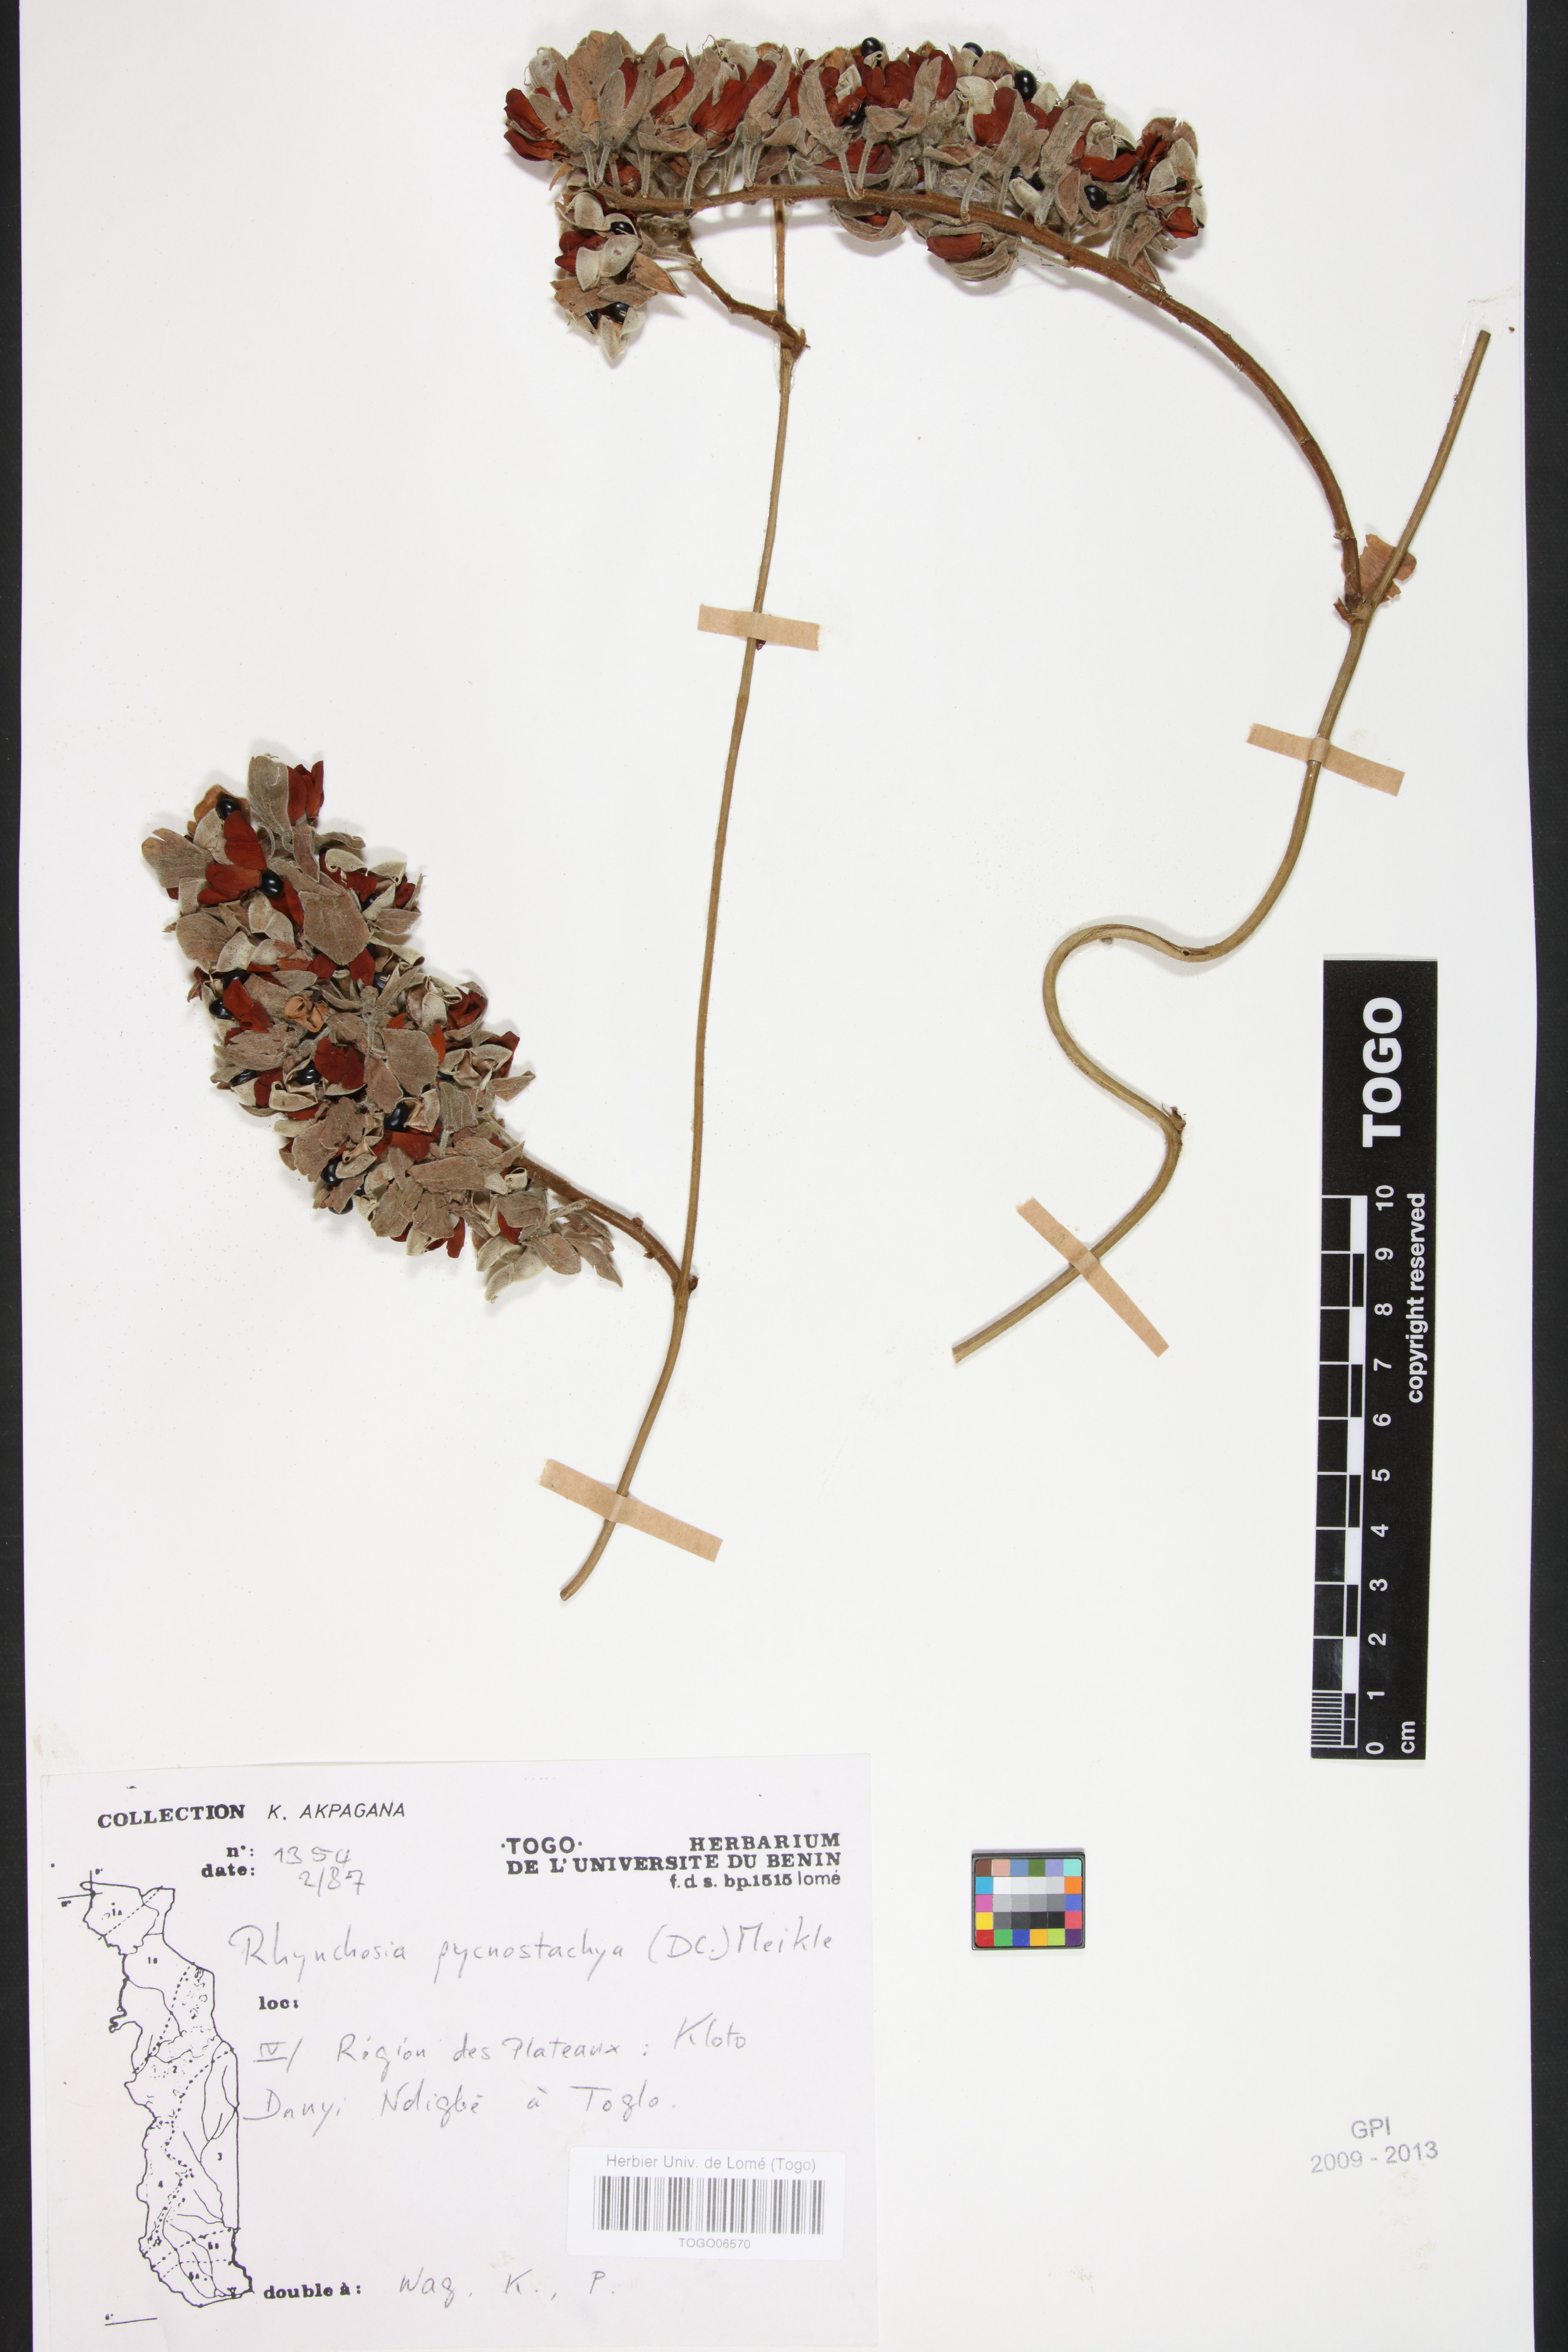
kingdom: Plantae
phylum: Tracheophyta
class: Magnoliopsida
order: Fabales
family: Fabaceae
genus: Rhynchosia
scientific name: Rhynchosia pycnostachya
